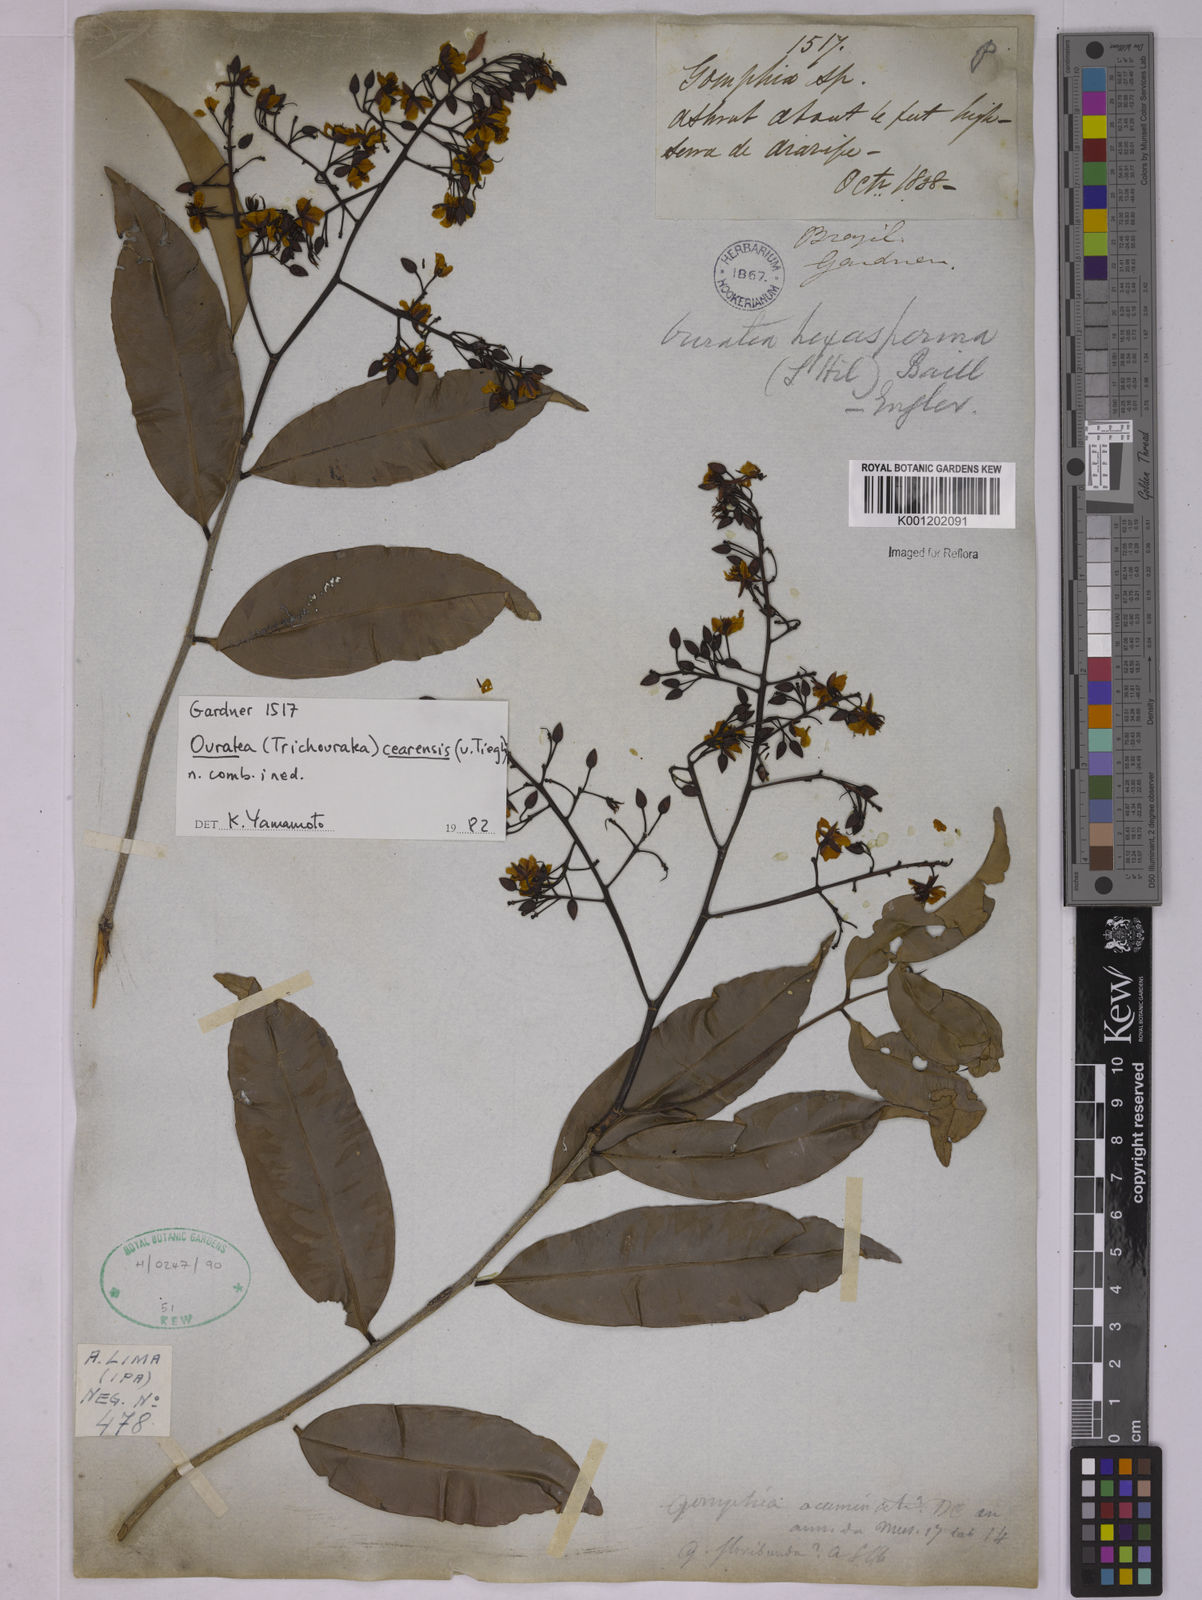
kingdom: Plantae
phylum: Tracheophyta
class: Magnoliopsida
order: Malpighiales
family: Ochnaceae
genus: Ouratea
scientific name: Ouratea cearensis
